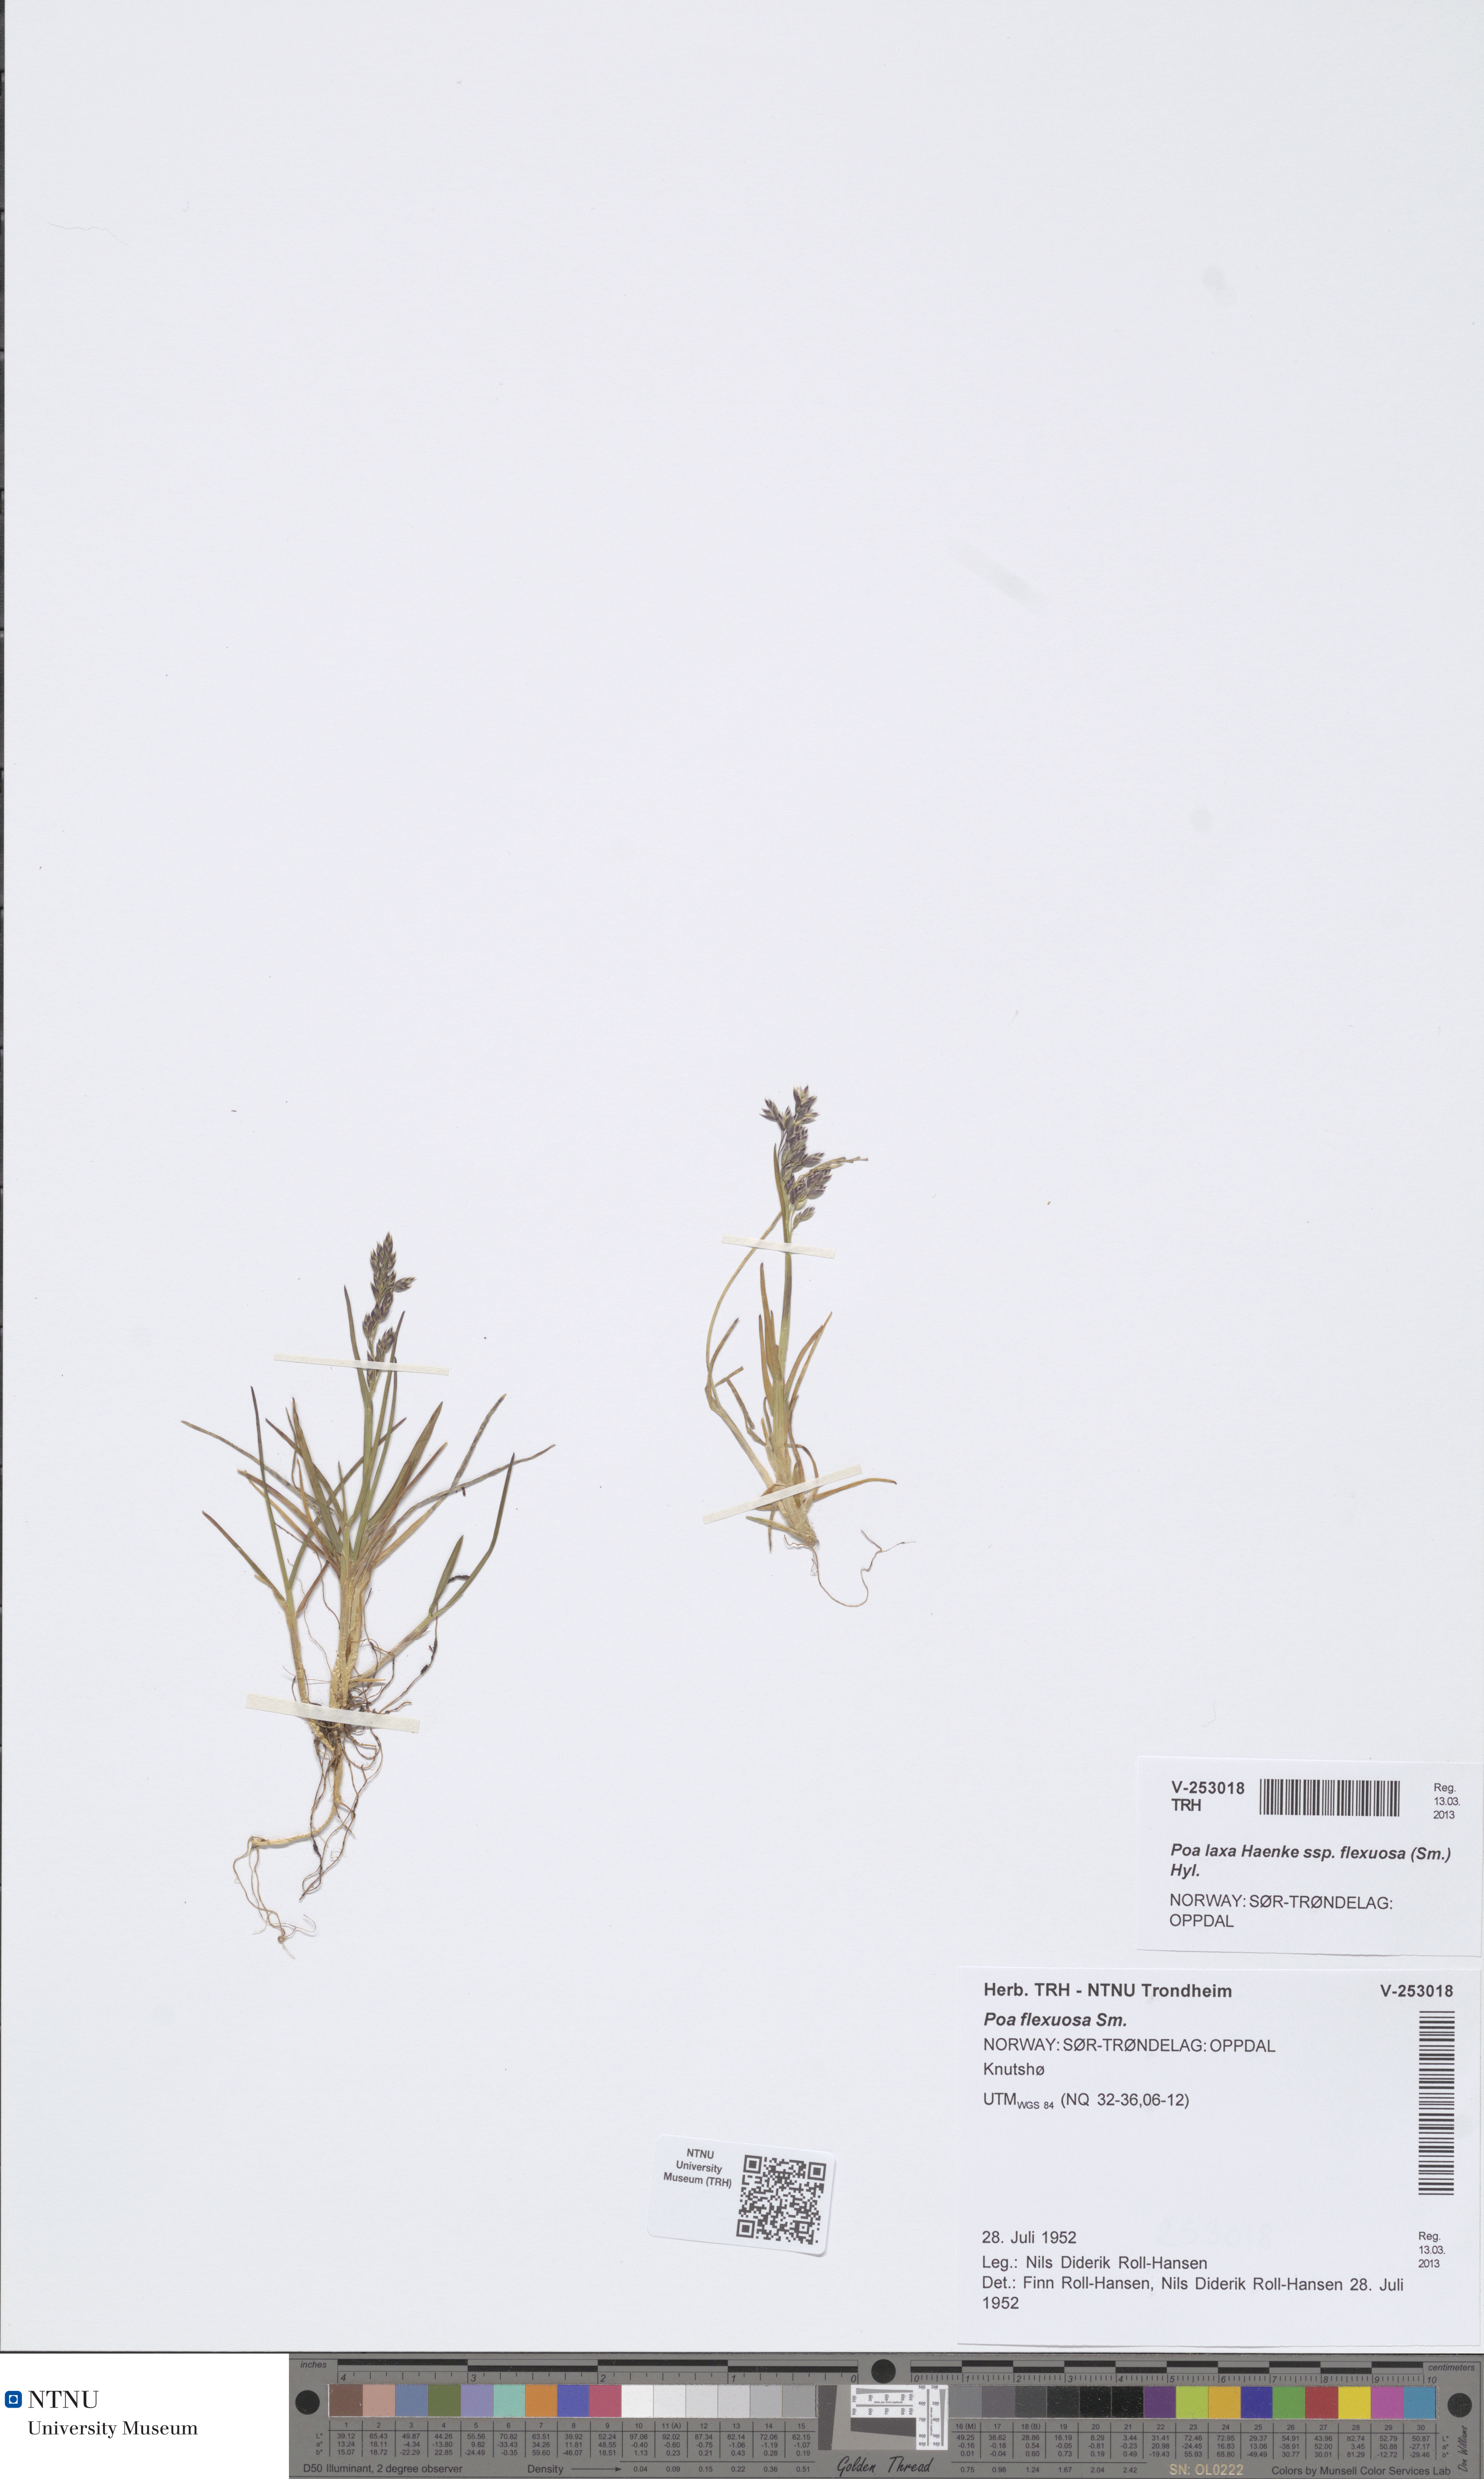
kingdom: Plantae
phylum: Tracheophyta
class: Liliopsida
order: Poales
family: Poaceae
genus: Poa
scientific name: Poa flexuosa
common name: Wavy meadow-grass
